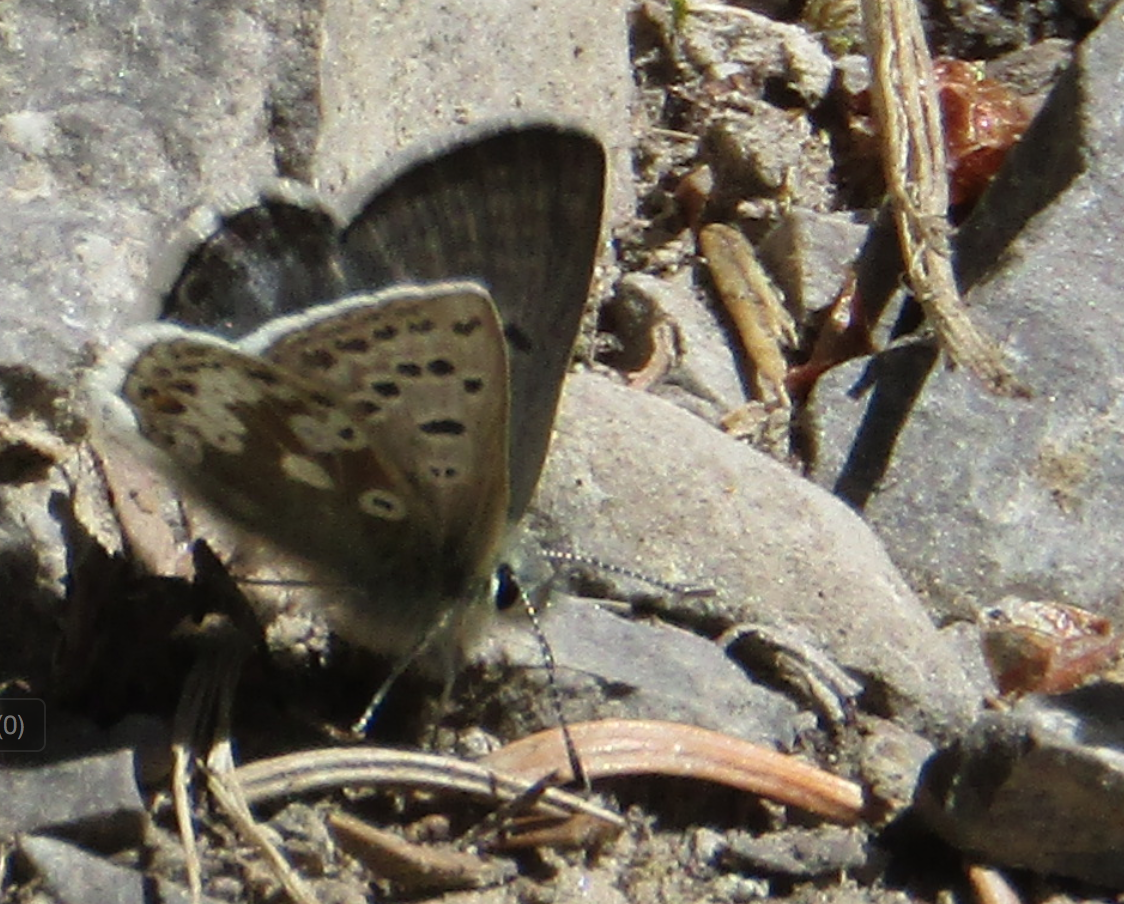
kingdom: Animalia
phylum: Arthropoda
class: Insecta
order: Lepidoptera
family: Lycaenidae
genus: Icaricia
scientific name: Icaricia icarioides
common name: Boisduval's Blue
